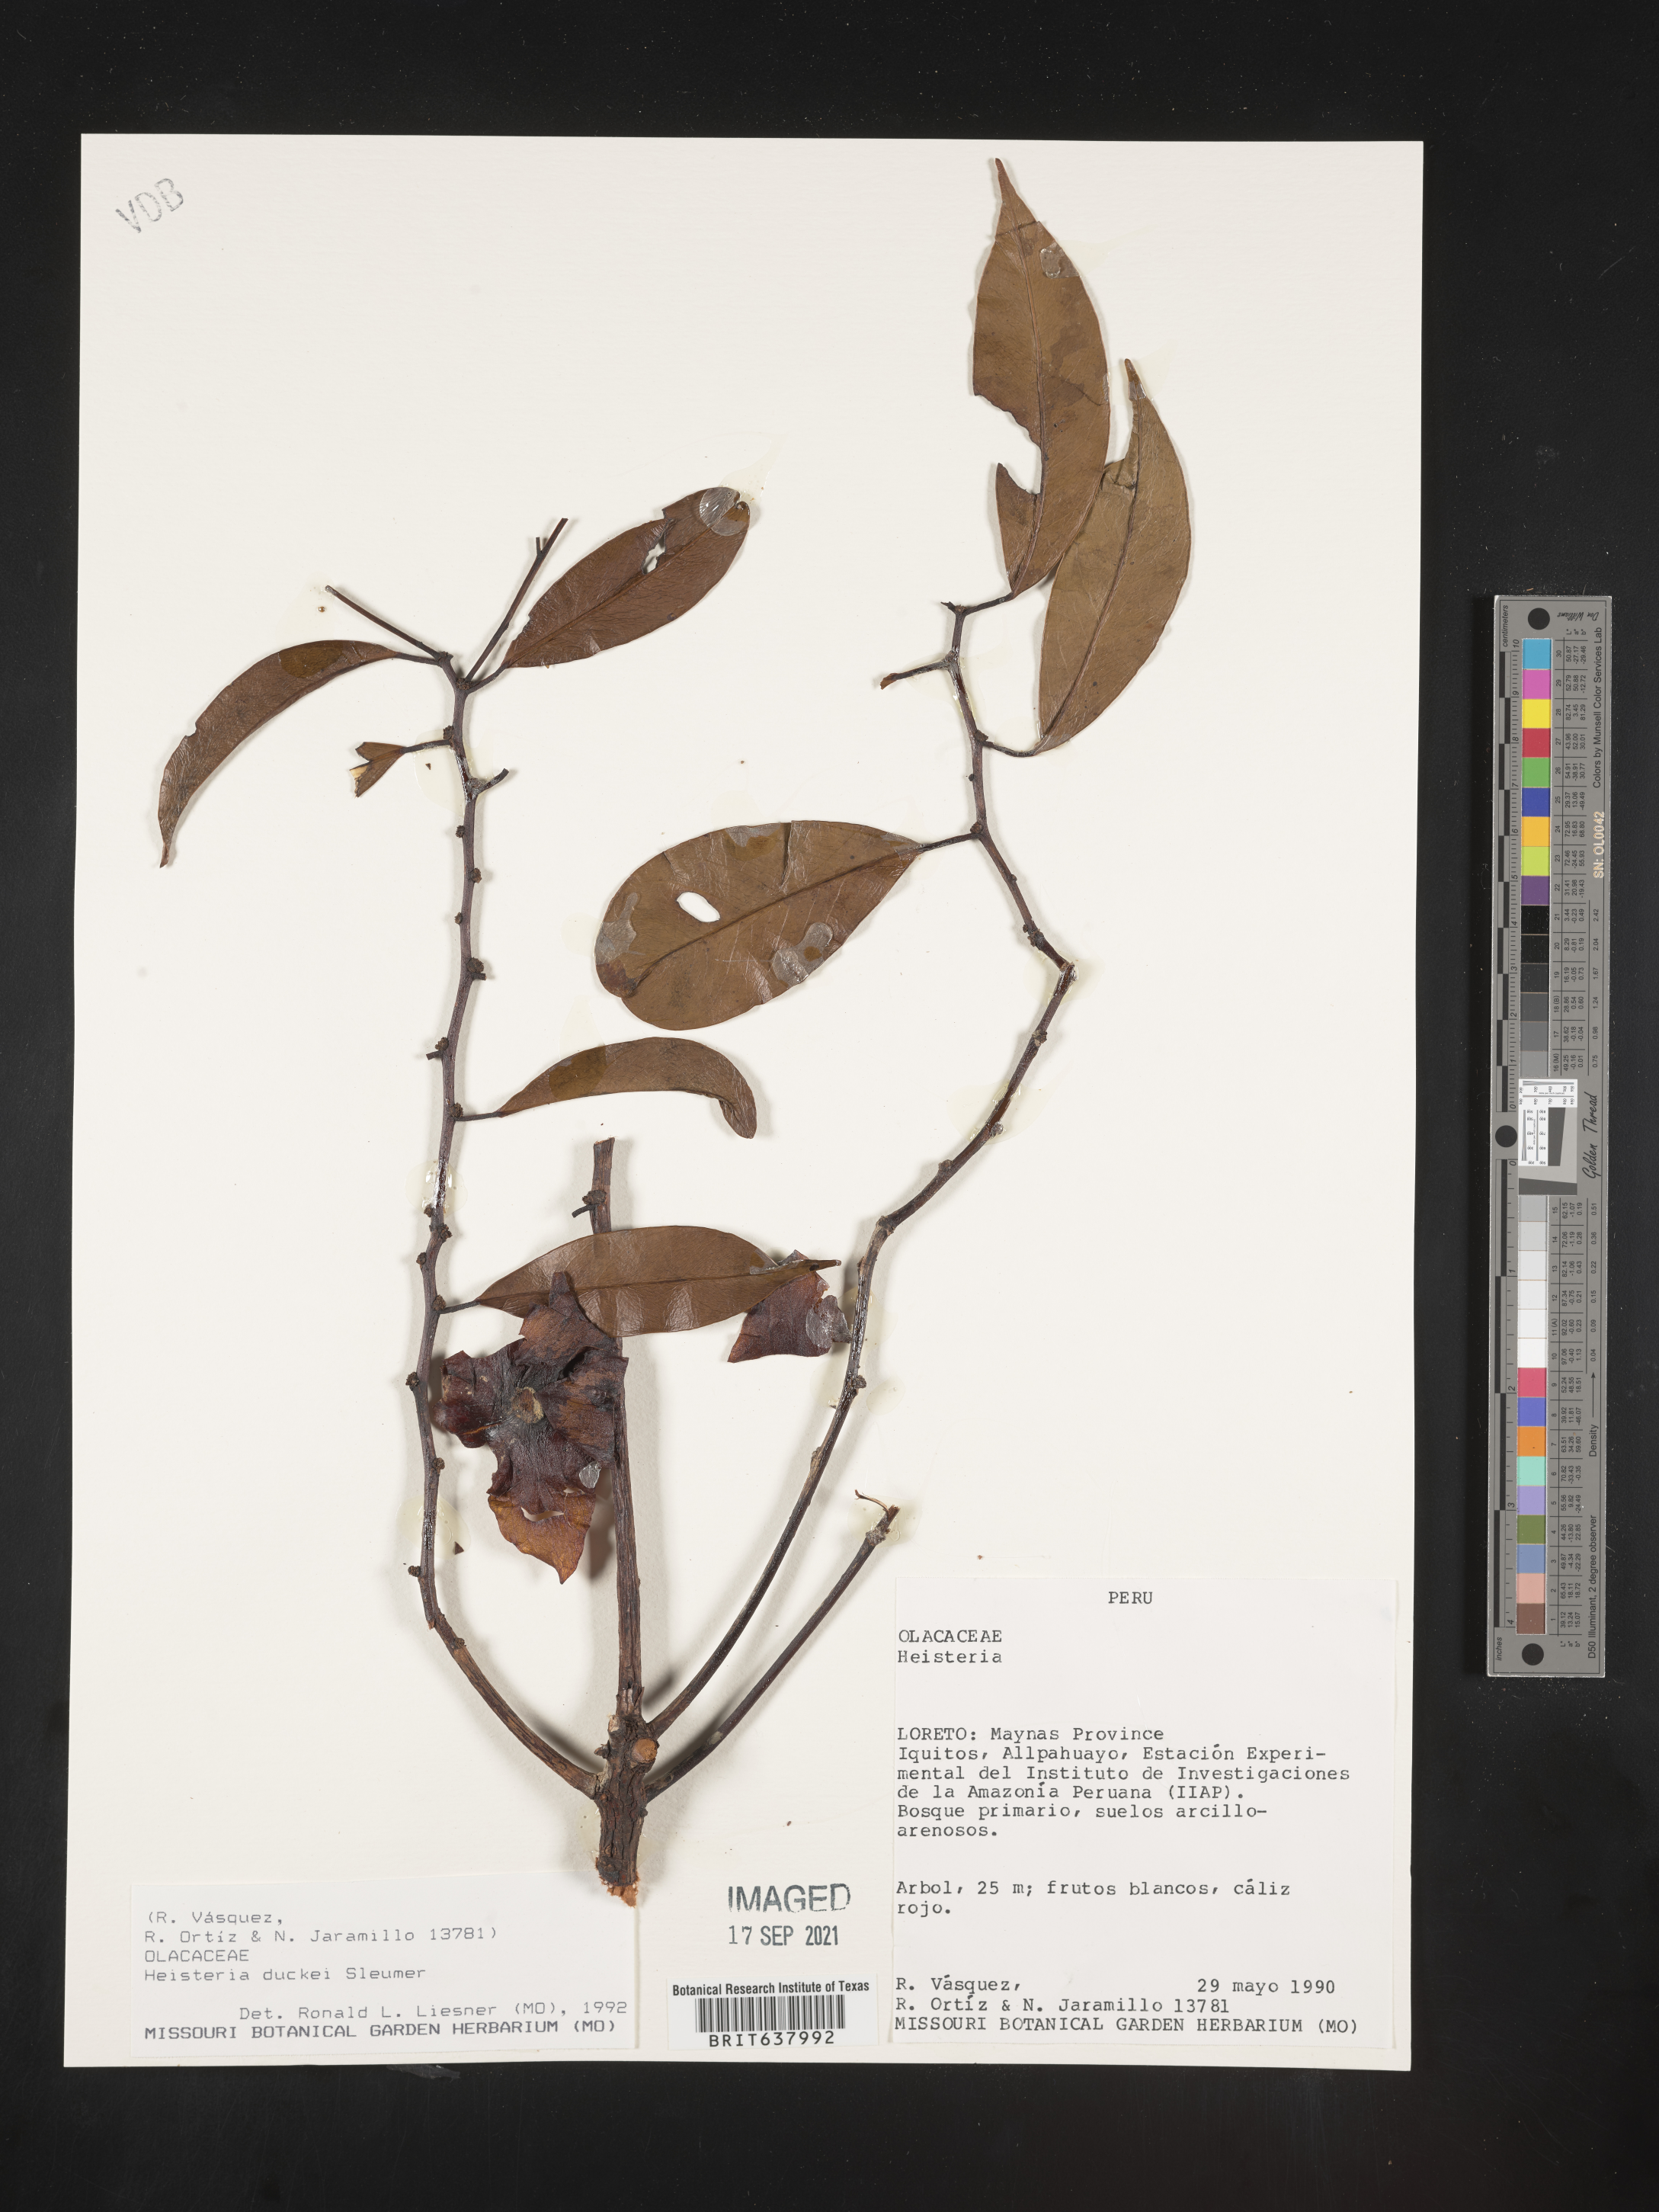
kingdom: Plantae
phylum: Tracheophyta
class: Magnoliopsida
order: Santalales
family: Erythropalaceae
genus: Heisteria
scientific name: Heisteria
